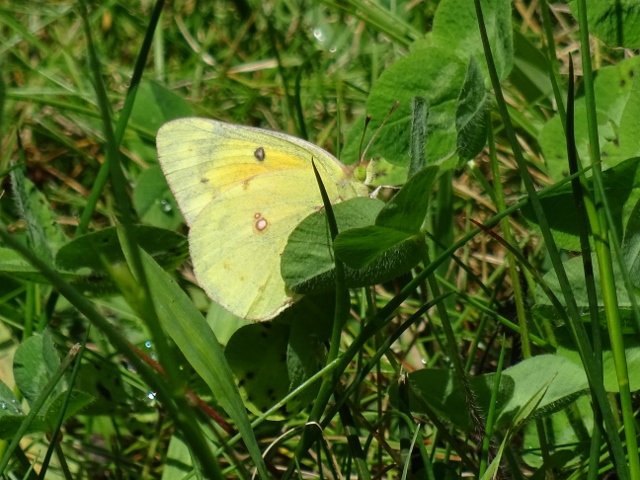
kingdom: Animalia
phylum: Arthropoda
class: Insecta
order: Lepidoptera
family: Pieridae
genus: Colias
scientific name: Colias eurytheme
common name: Orange Sulphur
